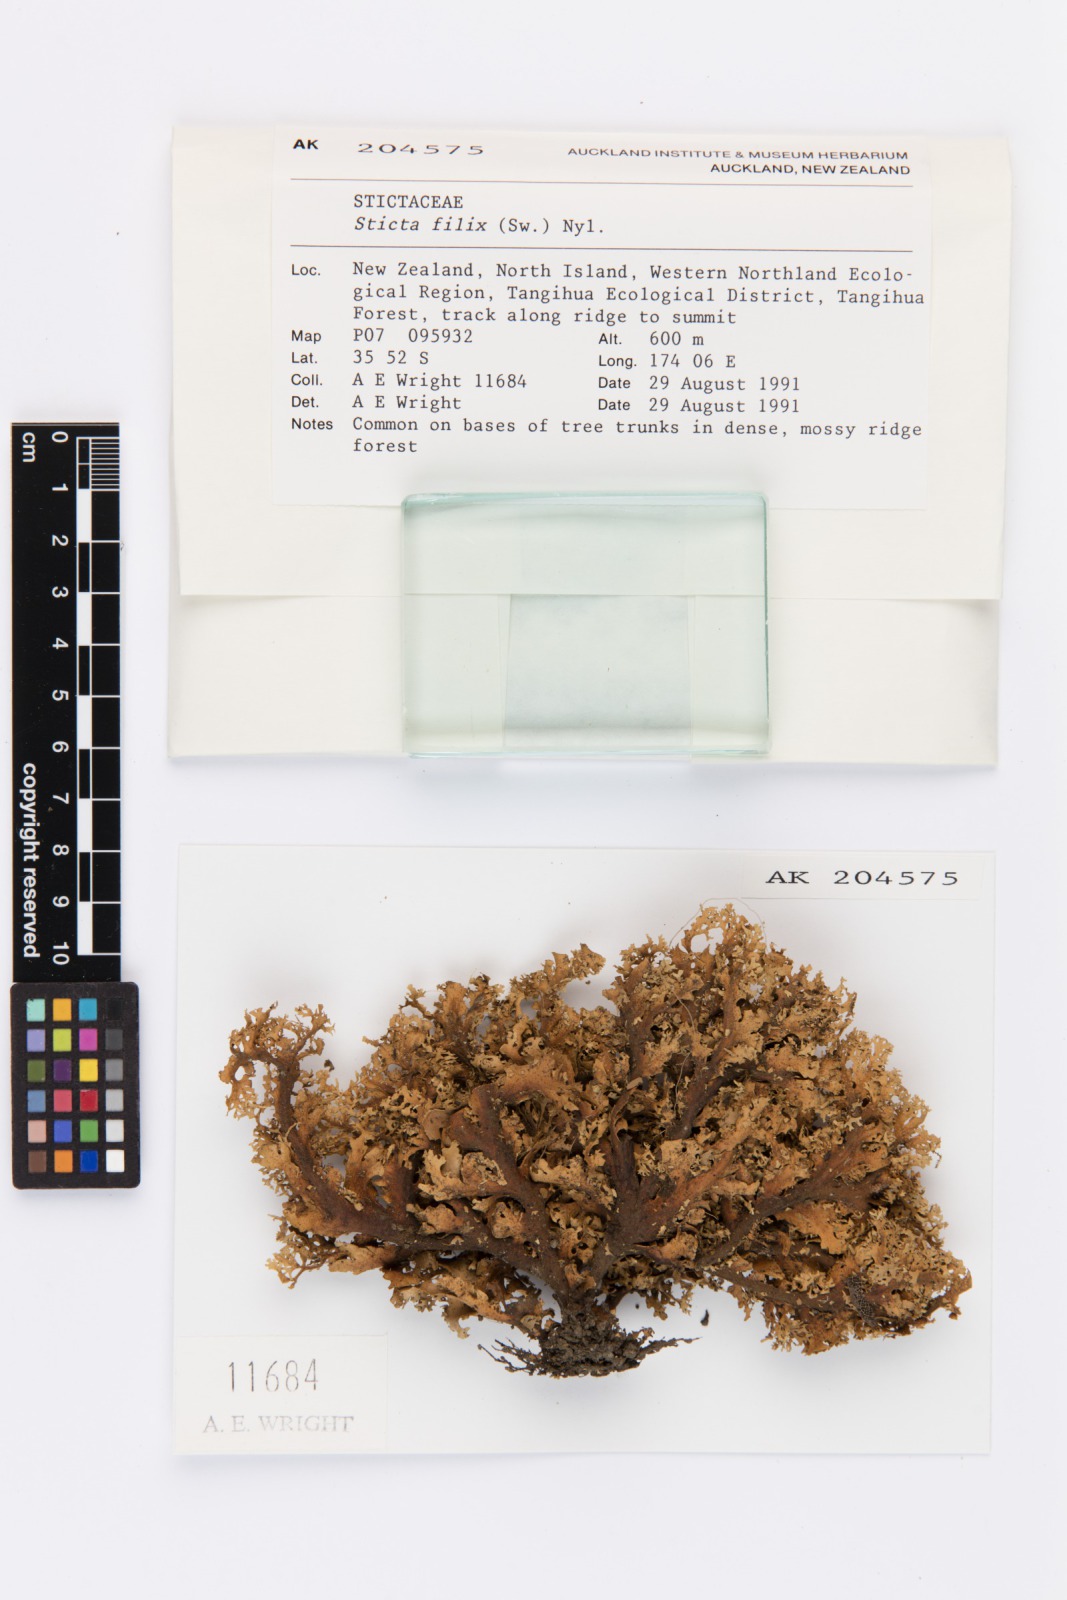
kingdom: Fungi
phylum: Ascomycota
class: Lecanoromycetes
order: Peltigerales
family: Lobariaceae
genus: Sticta
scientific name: Sticta filix
